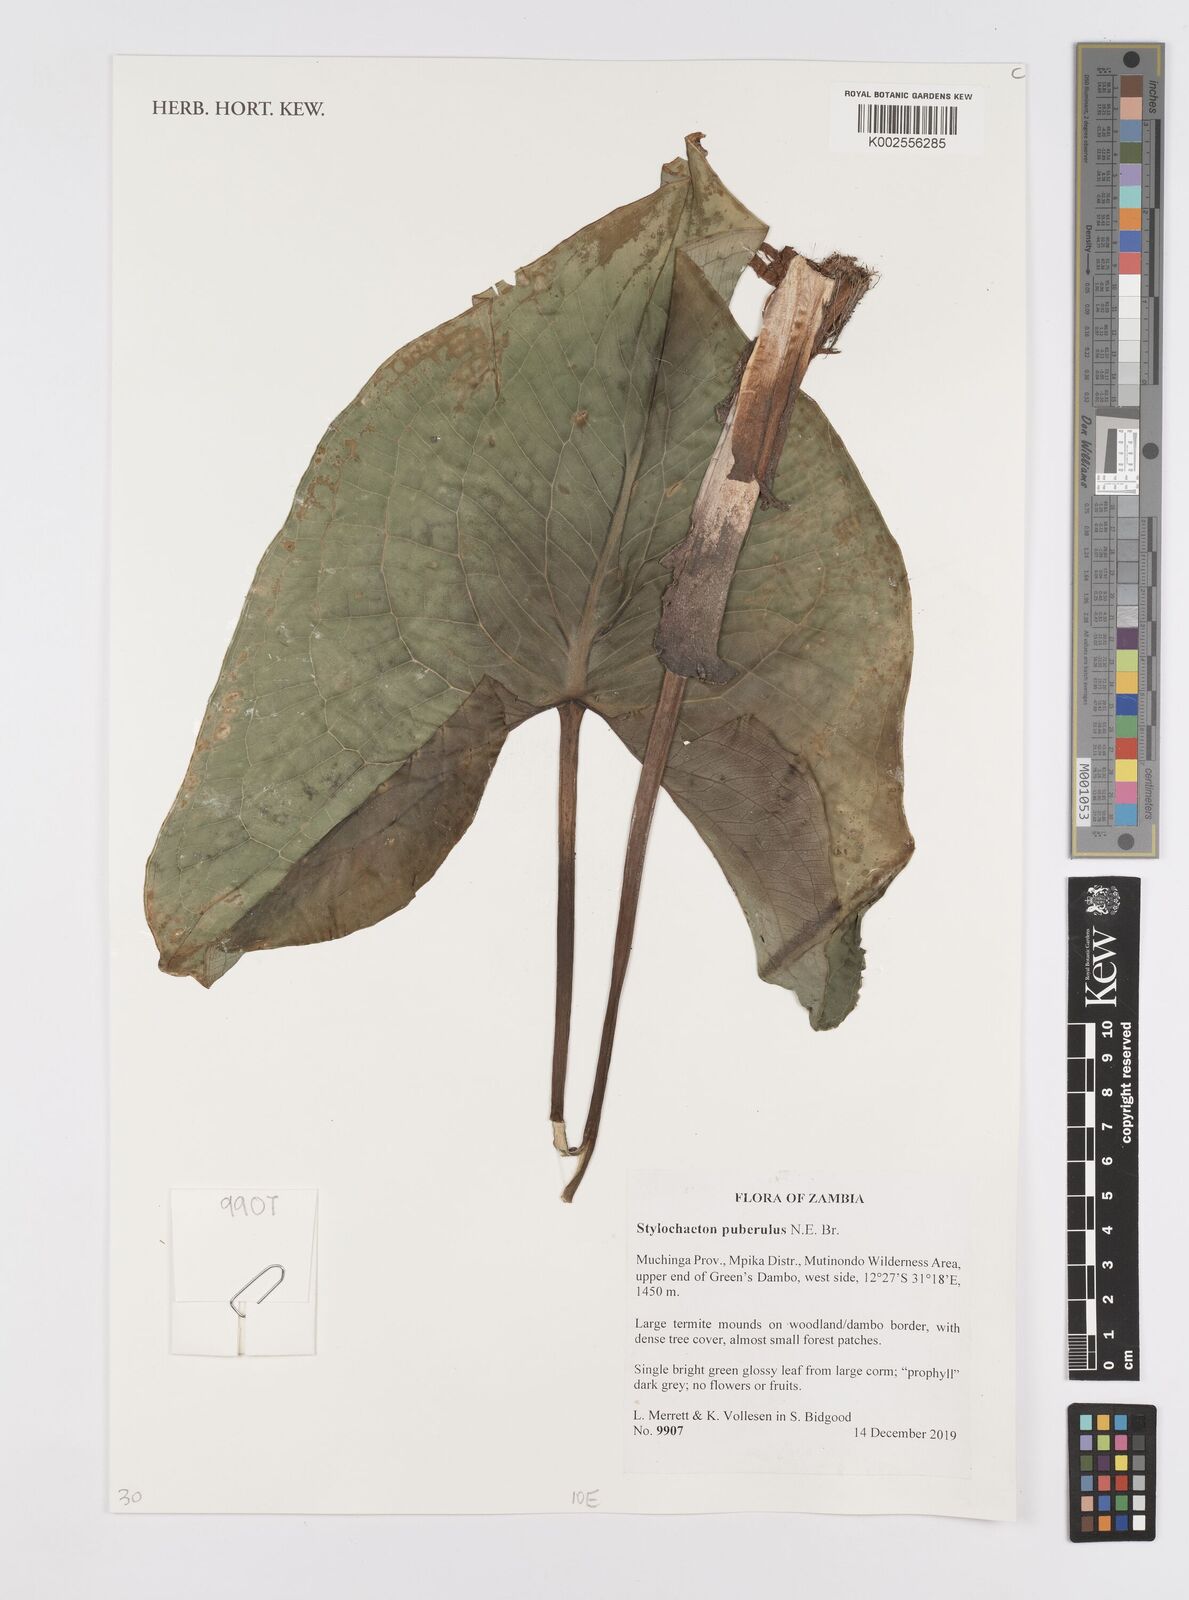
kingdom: Plantae
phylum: Tracheophyta
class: Liliopsida
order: Alismatales
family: Araceae
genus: Stylochaeton
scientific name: Stylochaeton puberulum
